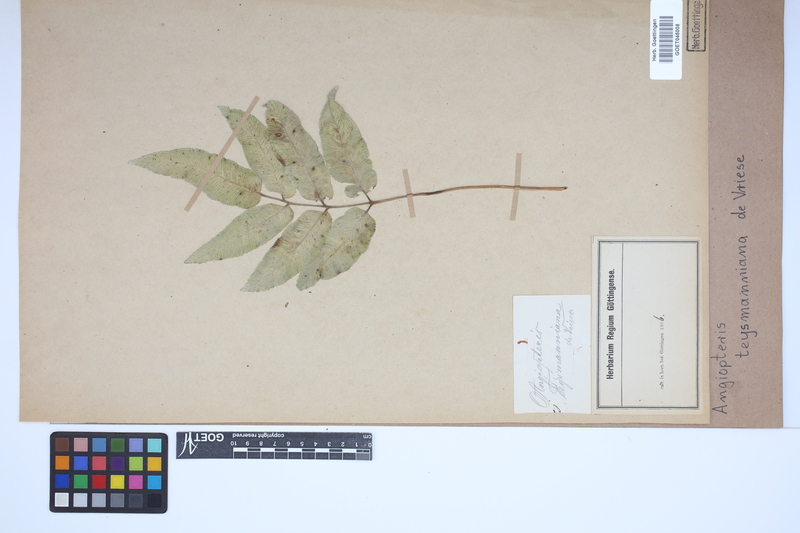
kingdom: Plantae
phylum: Tracheophyta
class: Polypodiopsida
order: Marattiales
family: Marattiaceae
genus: Angiopteris
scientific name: Angiopteris javanica
